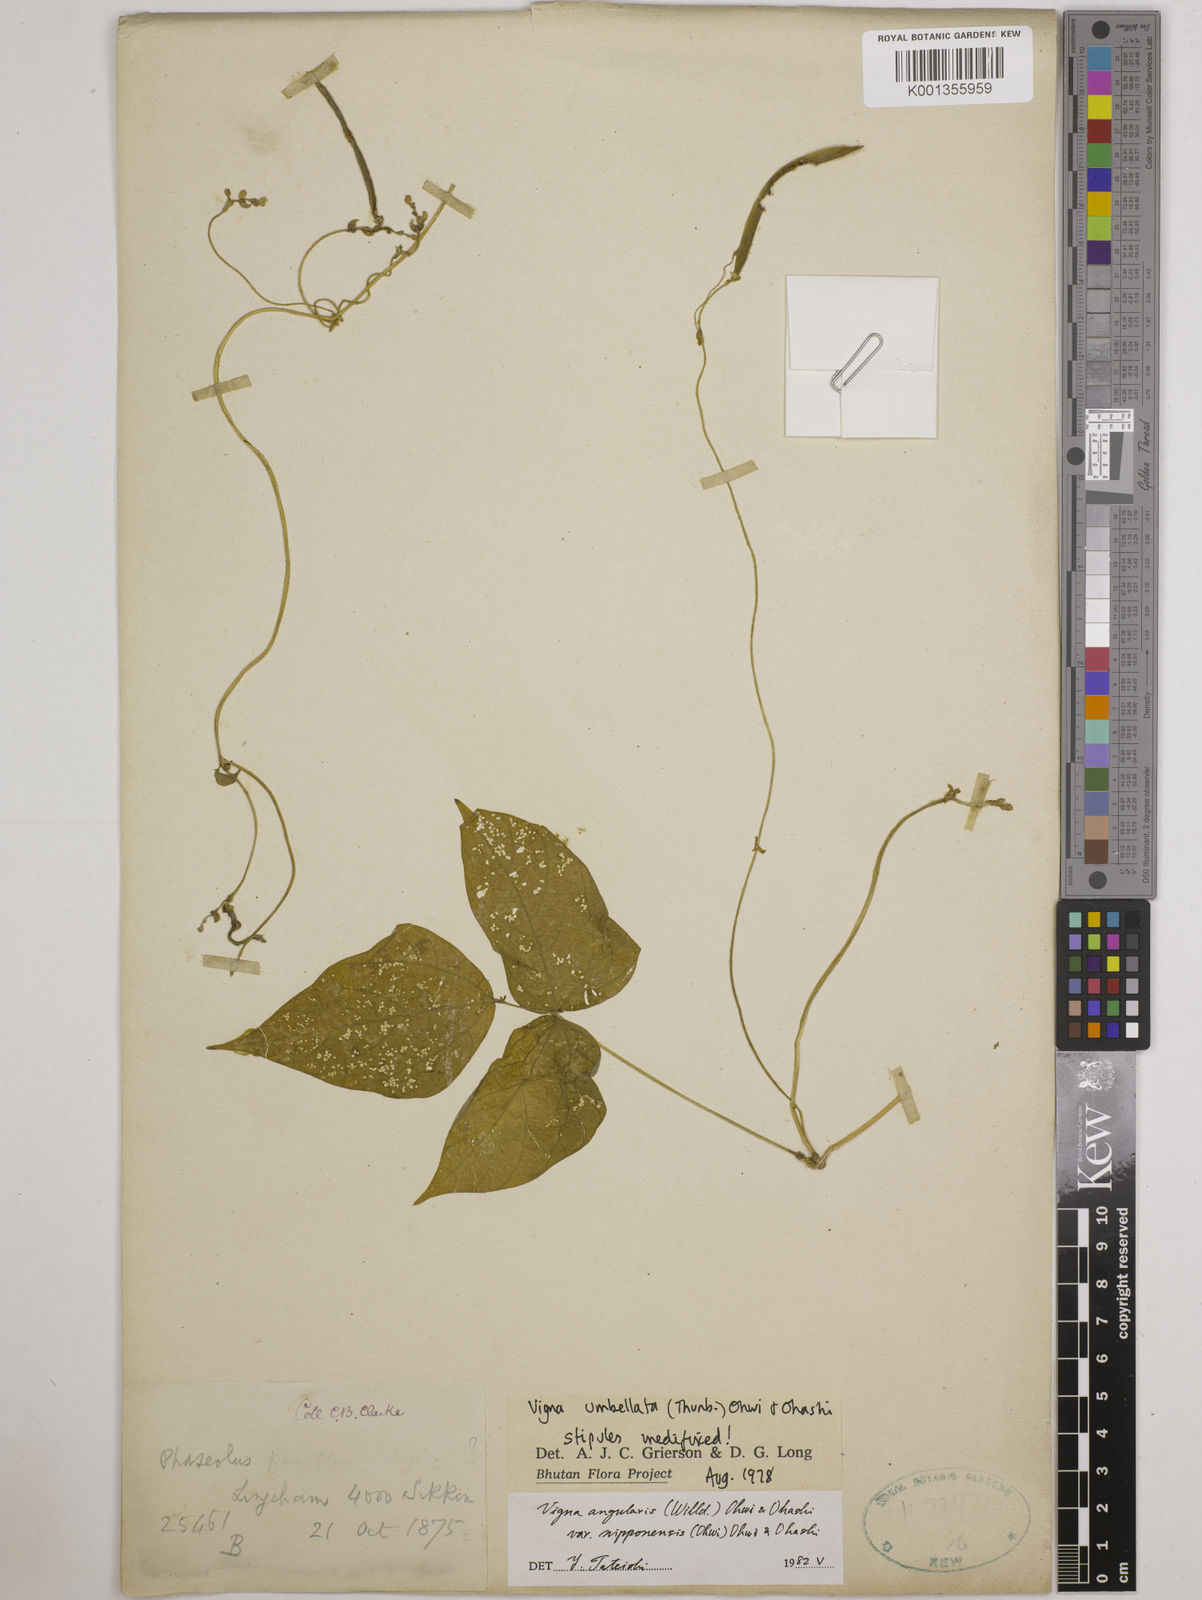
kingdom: Plantae
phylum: Tracheophyta
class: Magnoliopsida
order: Fabales
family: Fabaceae
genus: Vigna
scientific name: Vigna
